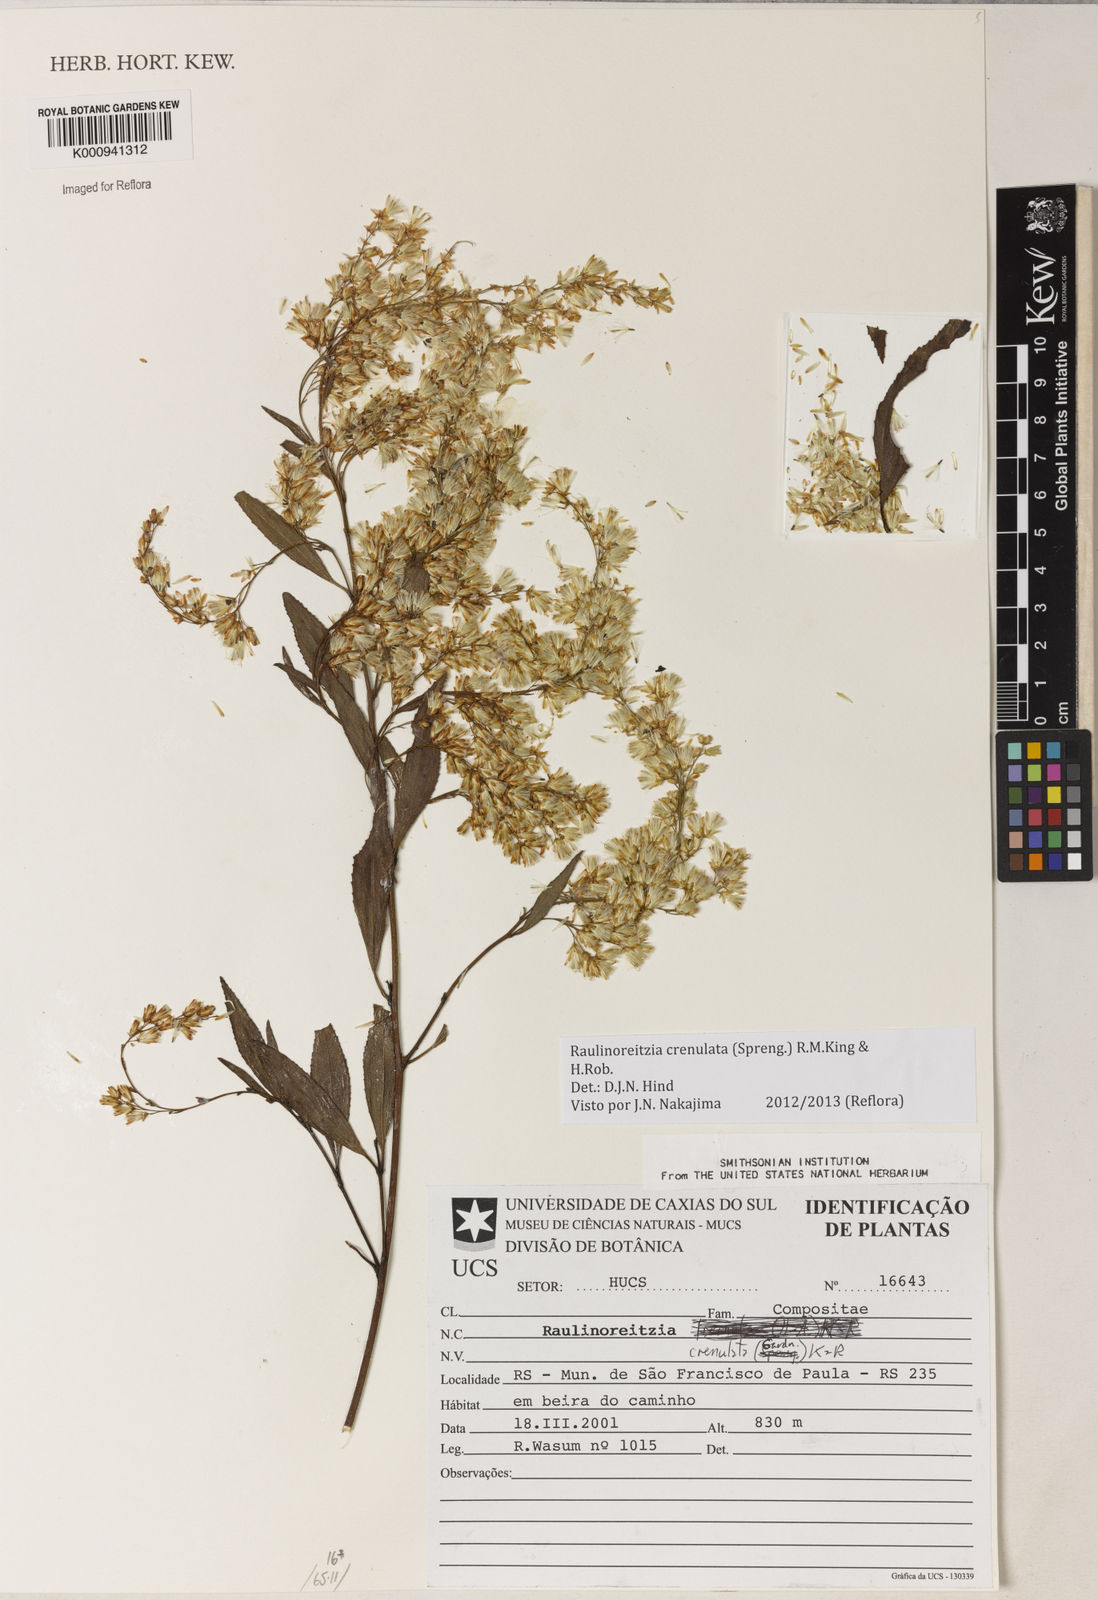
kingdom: Plantae
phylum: Tracheophyta
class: Magnoliopsida
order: Asterales
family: Asteraceae
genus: Raulinoreitzia
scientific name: Raulinoreitzia crenulata
